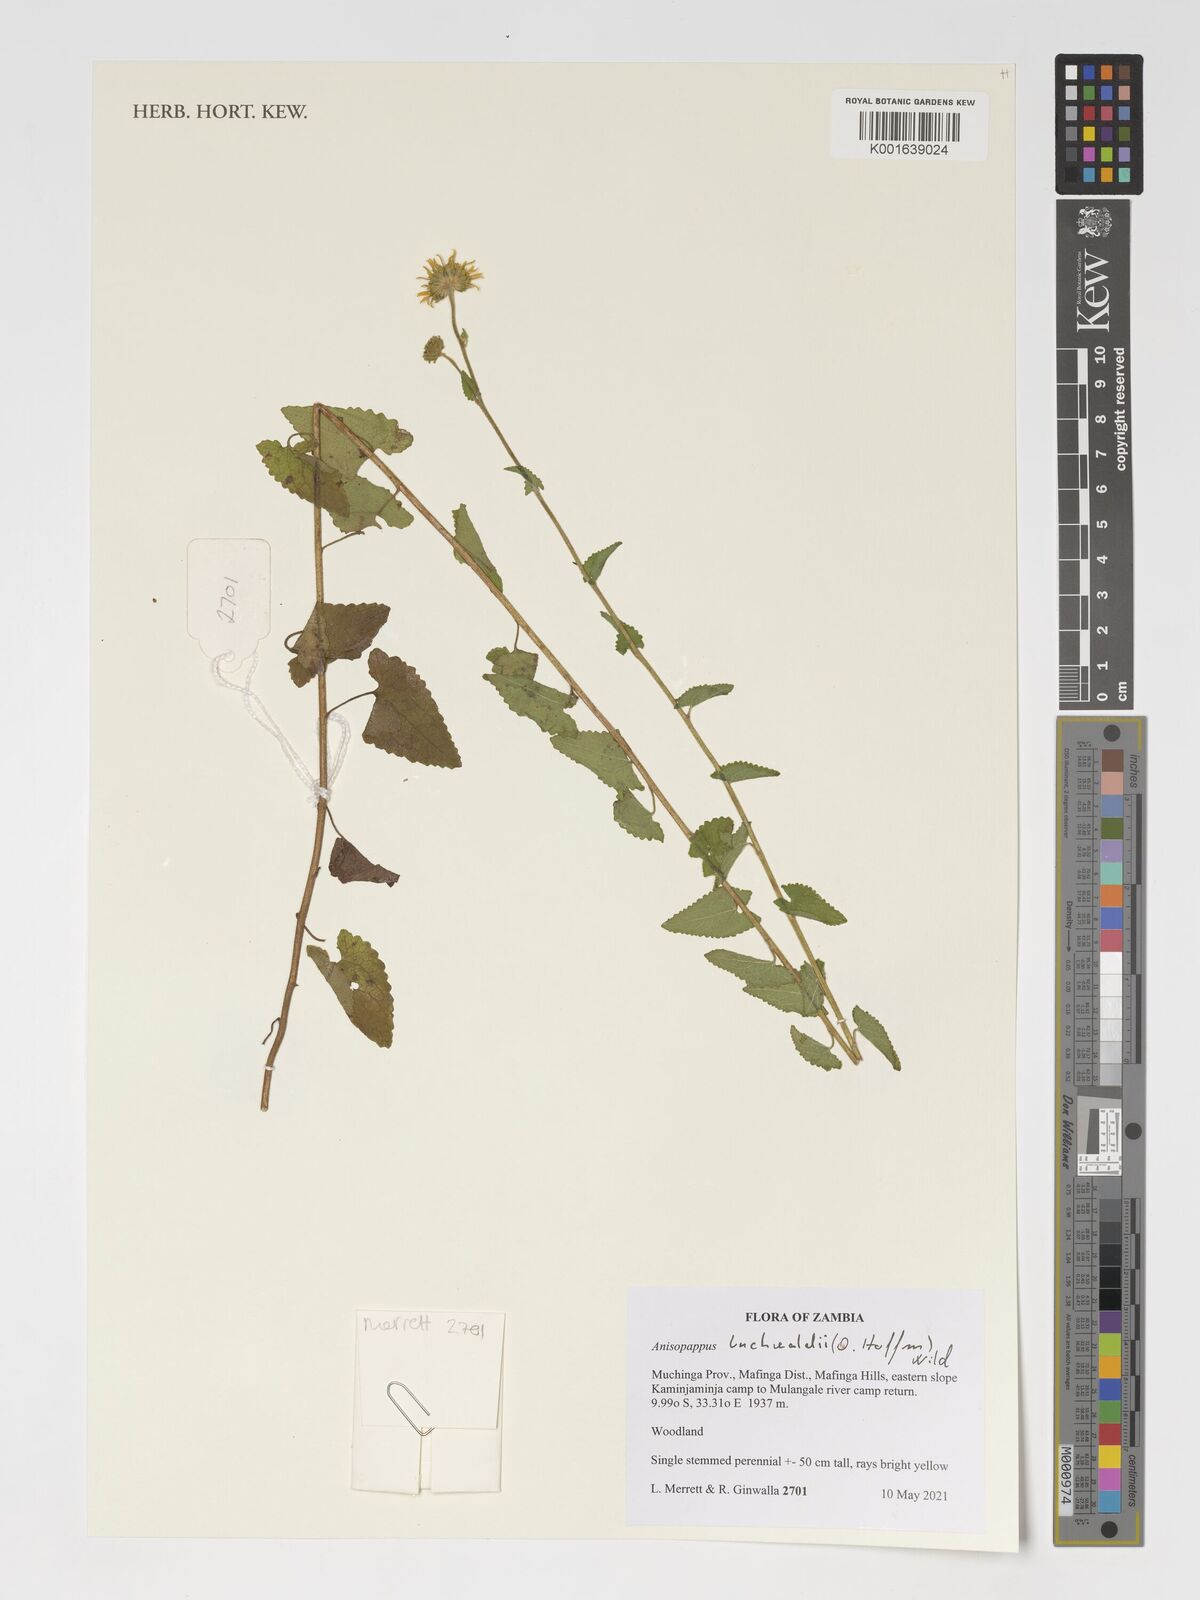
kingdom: Plantae
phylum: Tracheophyta
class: Magnoliopsida
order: Asterales
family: Asteraceae
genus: Anisopappus
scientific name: Anisopappus buchwaldii
